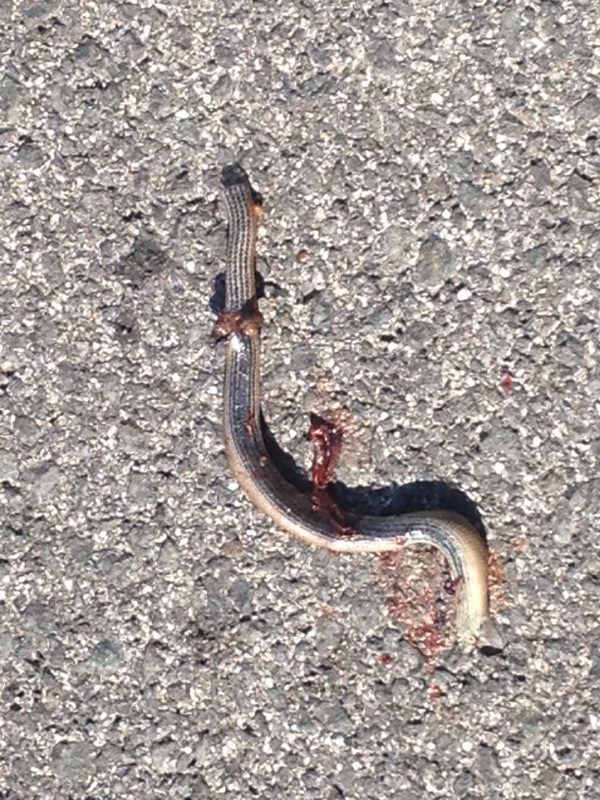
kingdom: Animalia
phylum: Chordata
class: Squamata
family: Anguidae
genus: Anguis
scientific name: Anguis fragilis
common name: Slow worm
